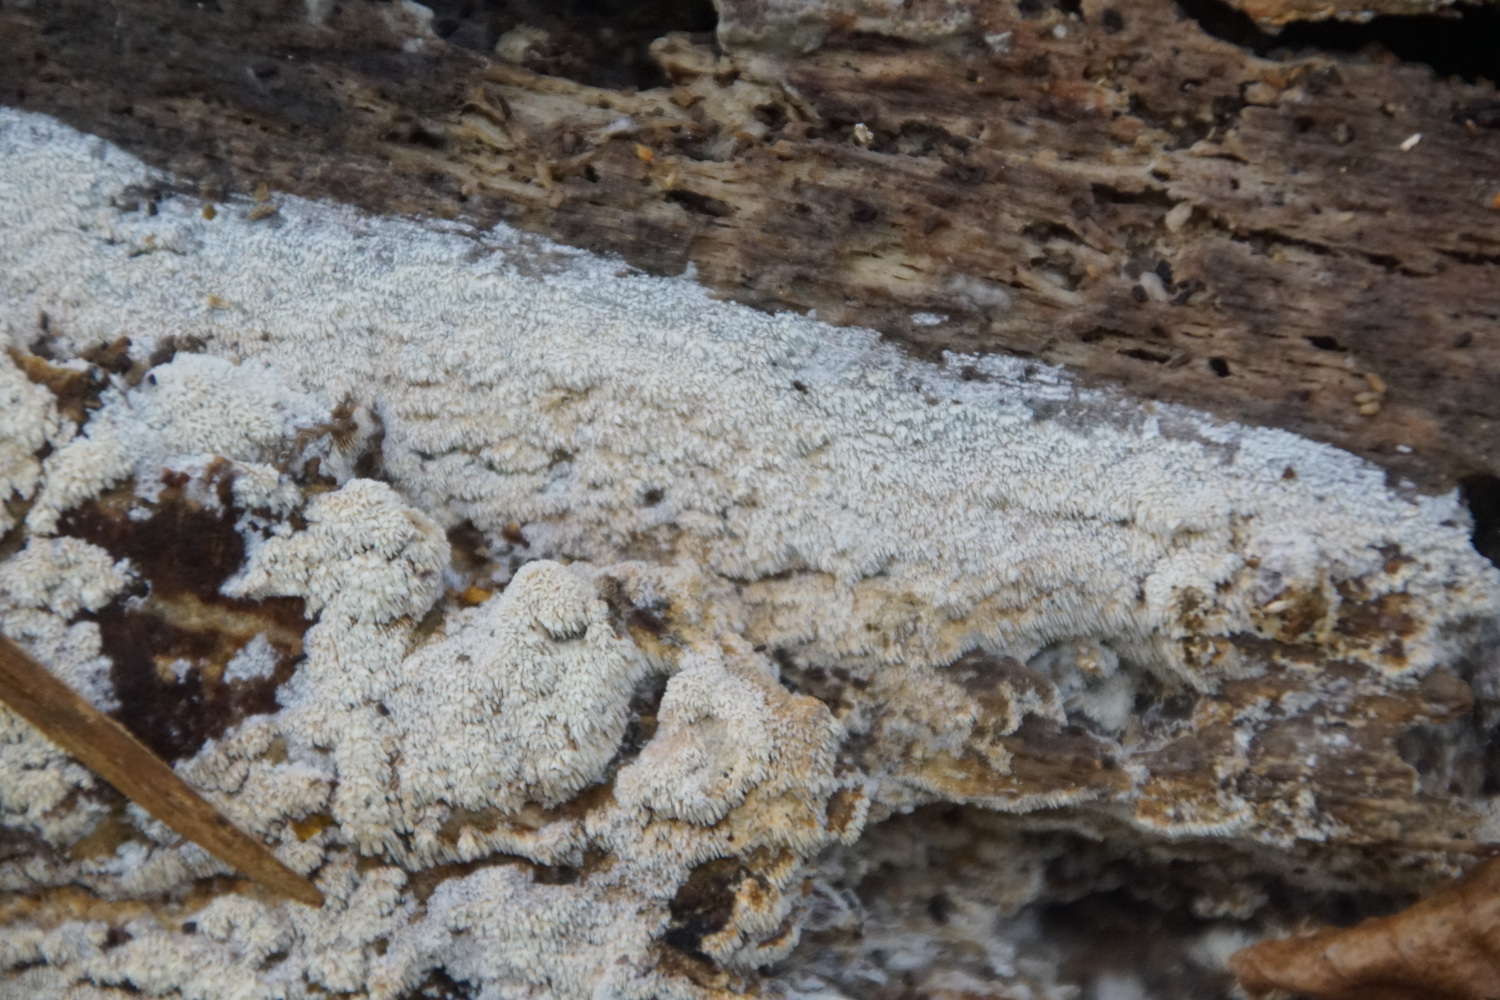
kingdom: Fungi
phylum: Basidiomycota
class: Agaricomycetes
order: Corticiales
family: Corticiaceae
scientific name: Corticiaceae
